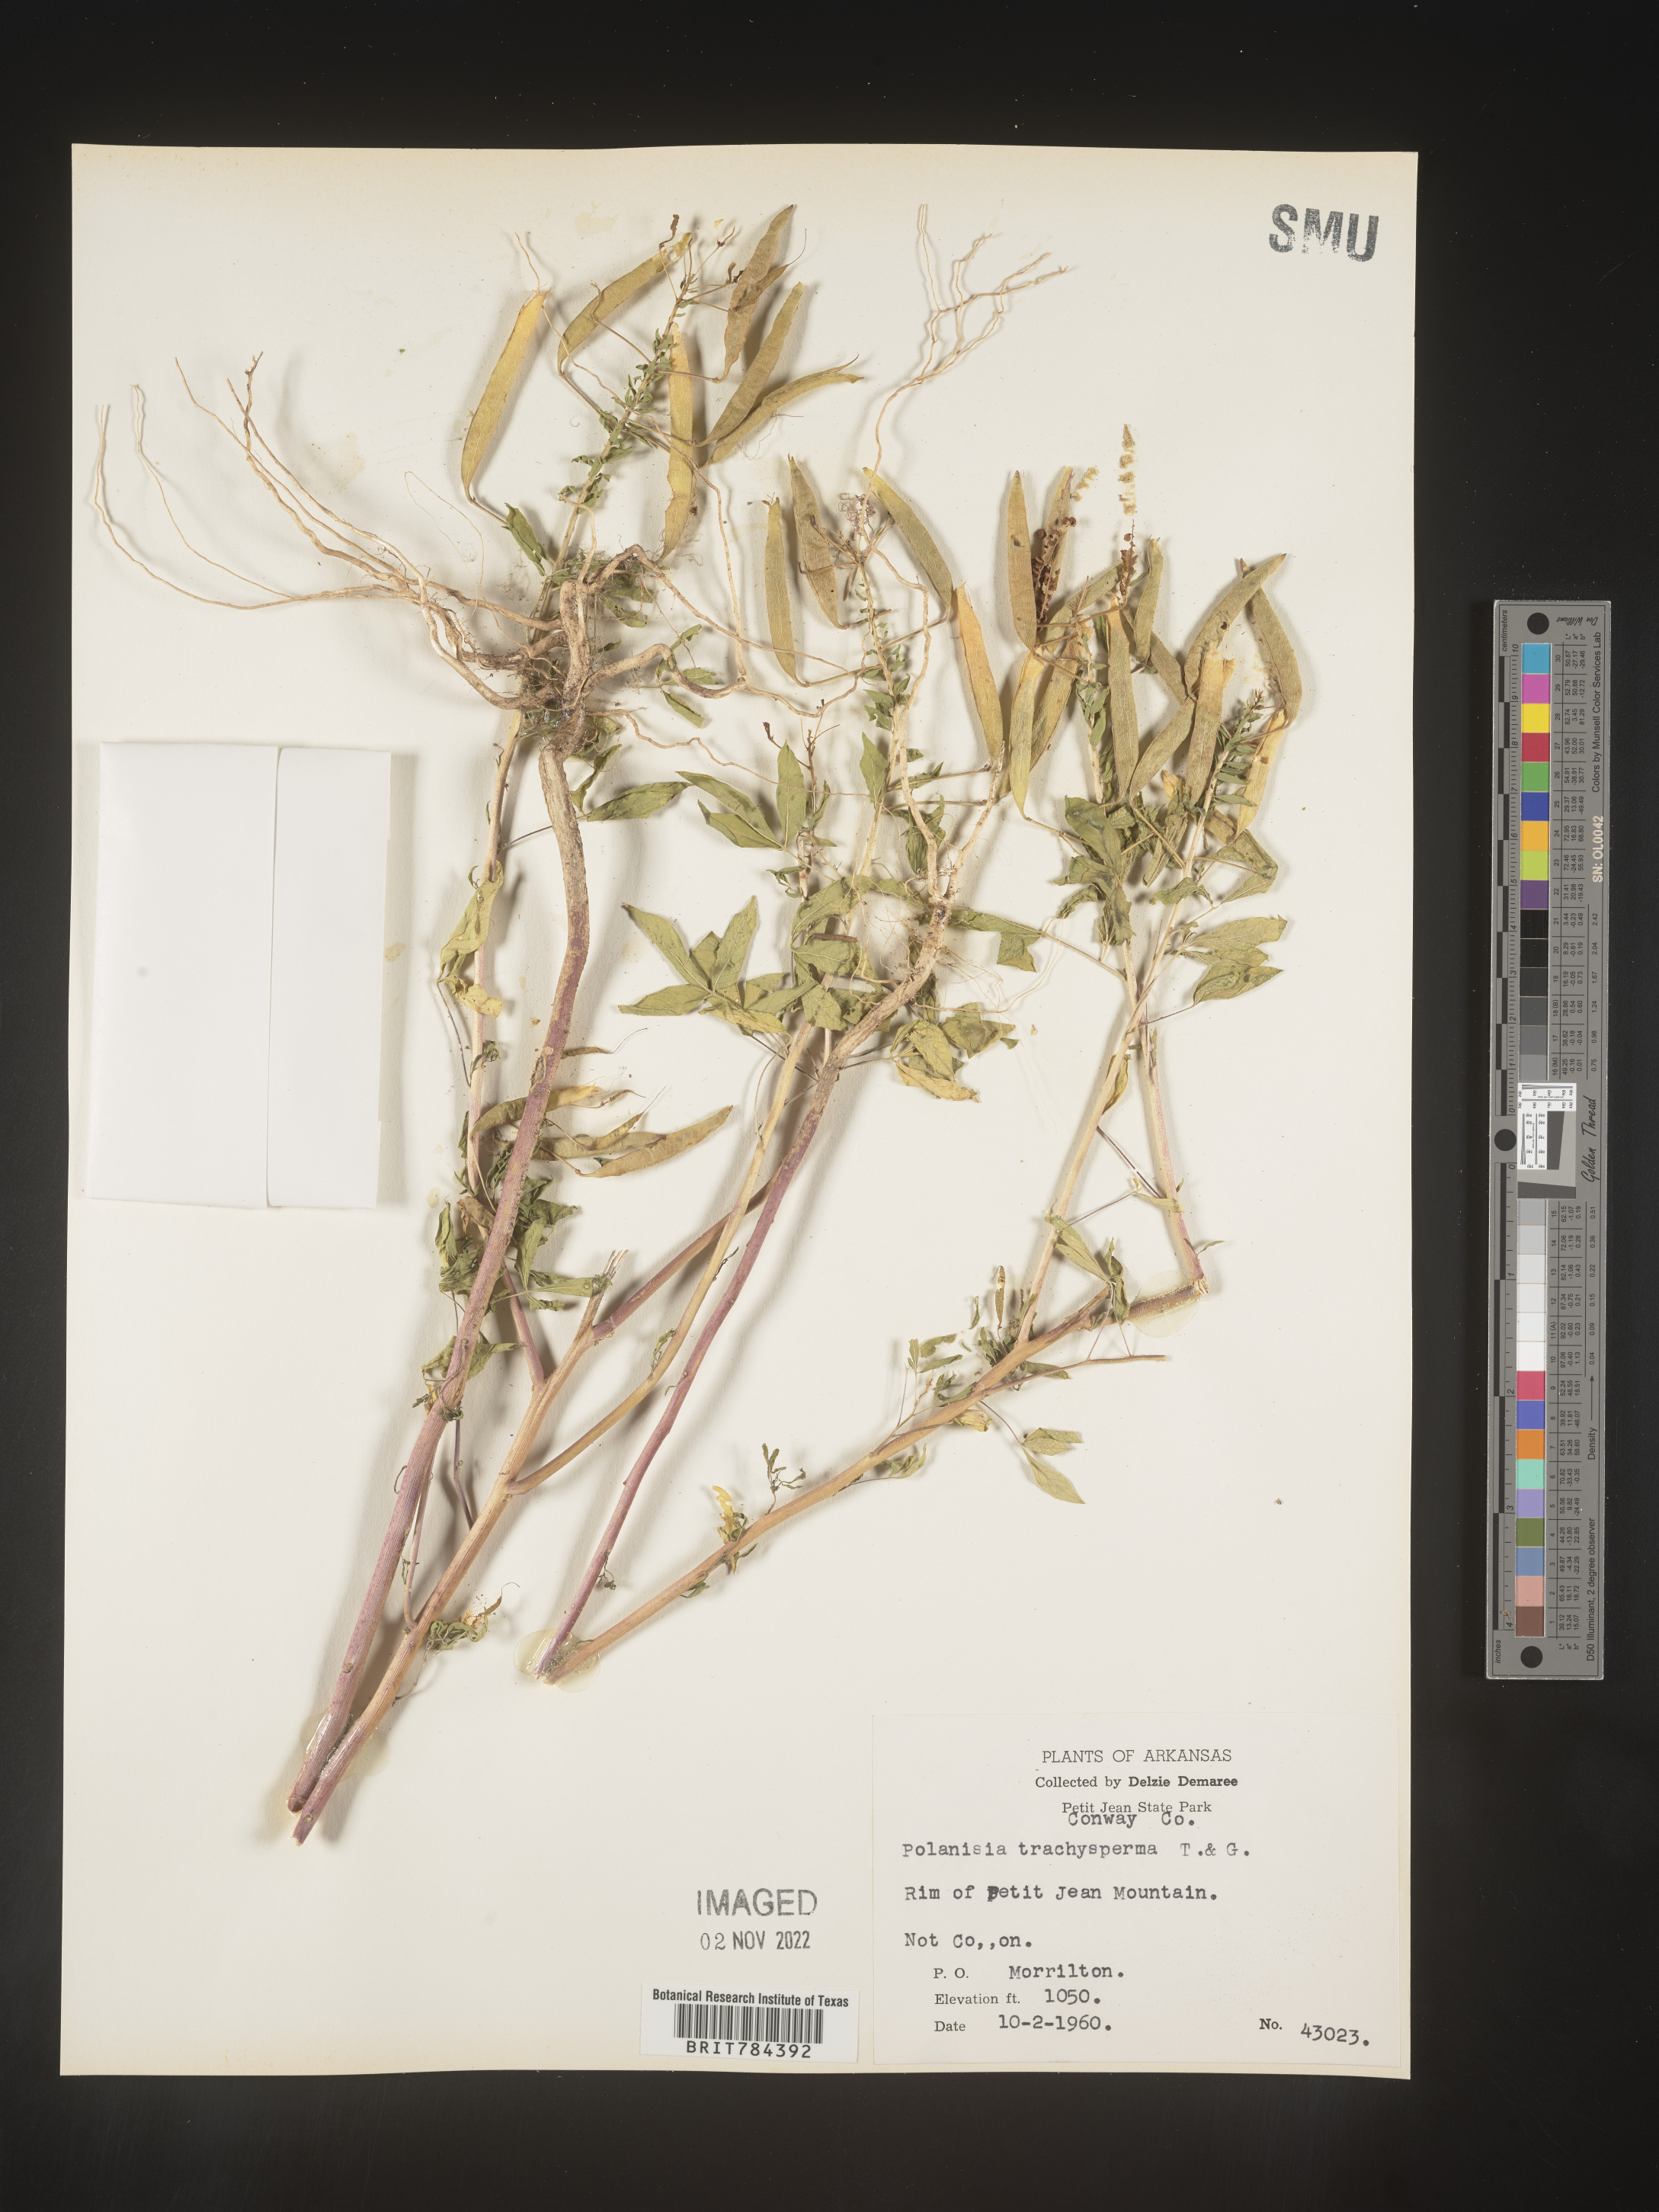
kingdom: Plantae
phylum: Tracheophyta
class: Magnoliopsida
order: Brassicales
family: Cleomaceae
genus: Polanisia
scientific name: Polanisia dodecandra
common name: Clammyweed
